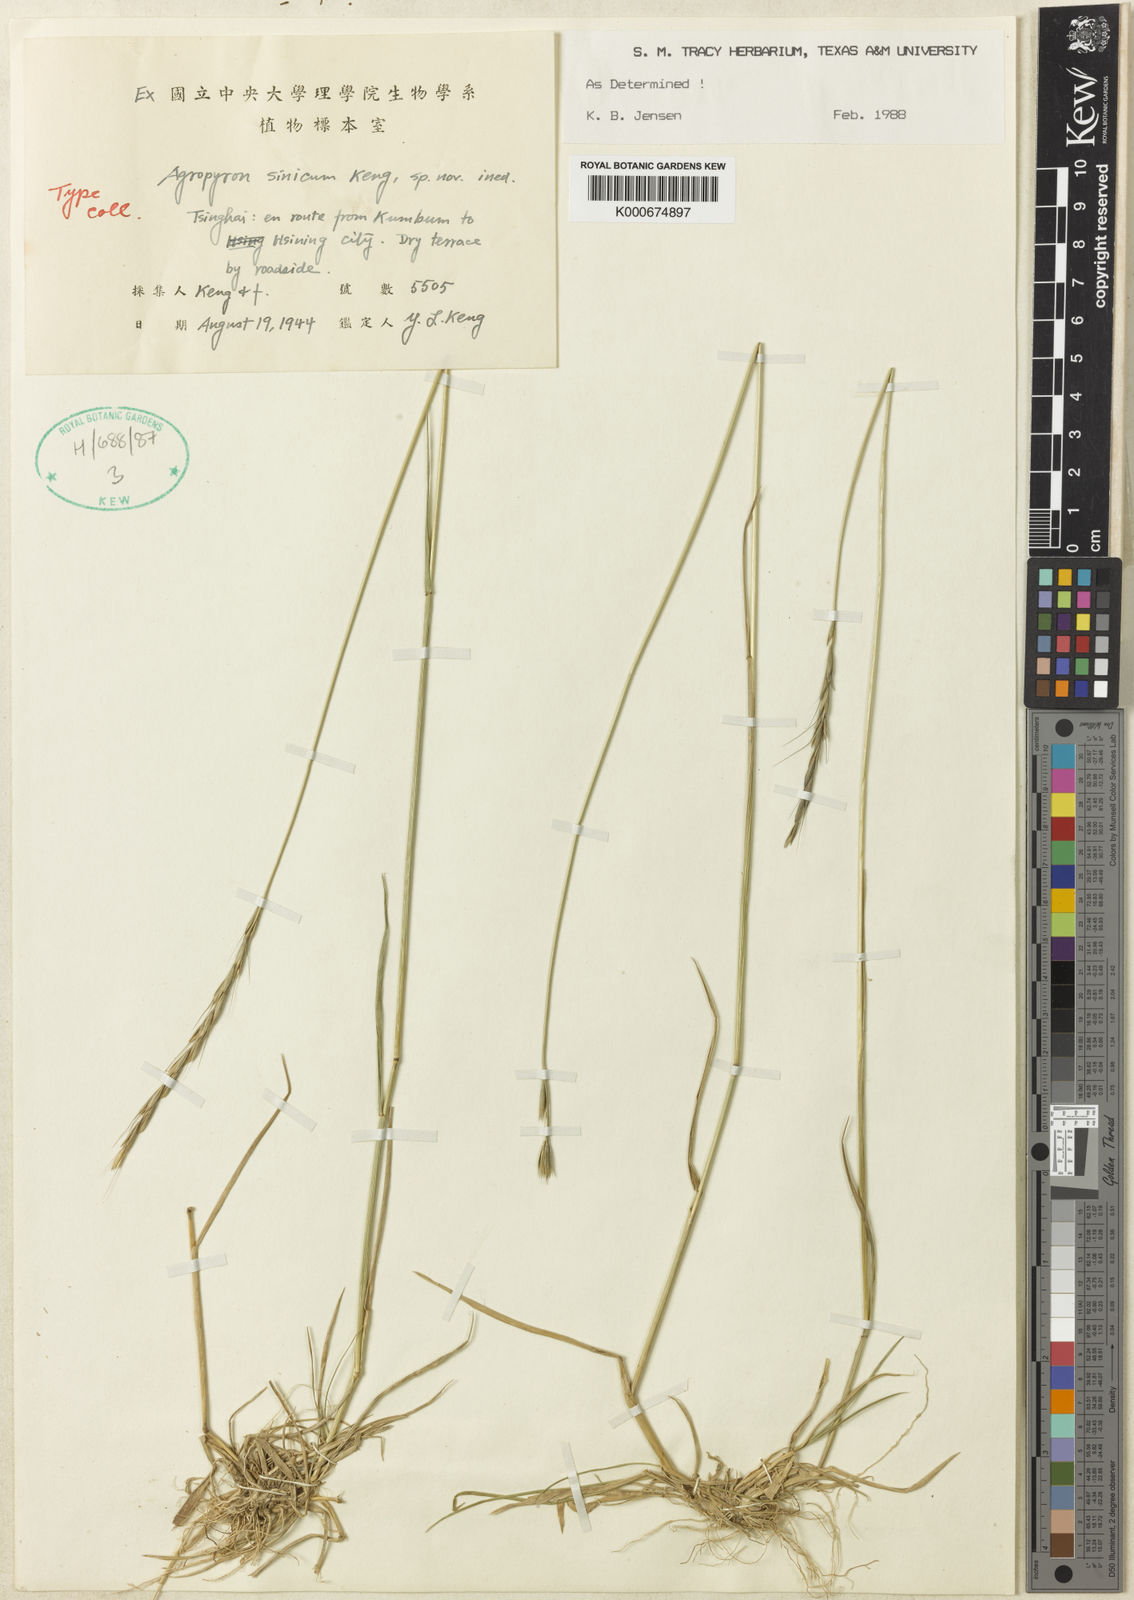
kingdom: Plantae
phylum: Tracheophyta
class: Liliopsida
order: Poales
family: Poaceae
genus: Elymus
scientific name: Elymus scabridulus
